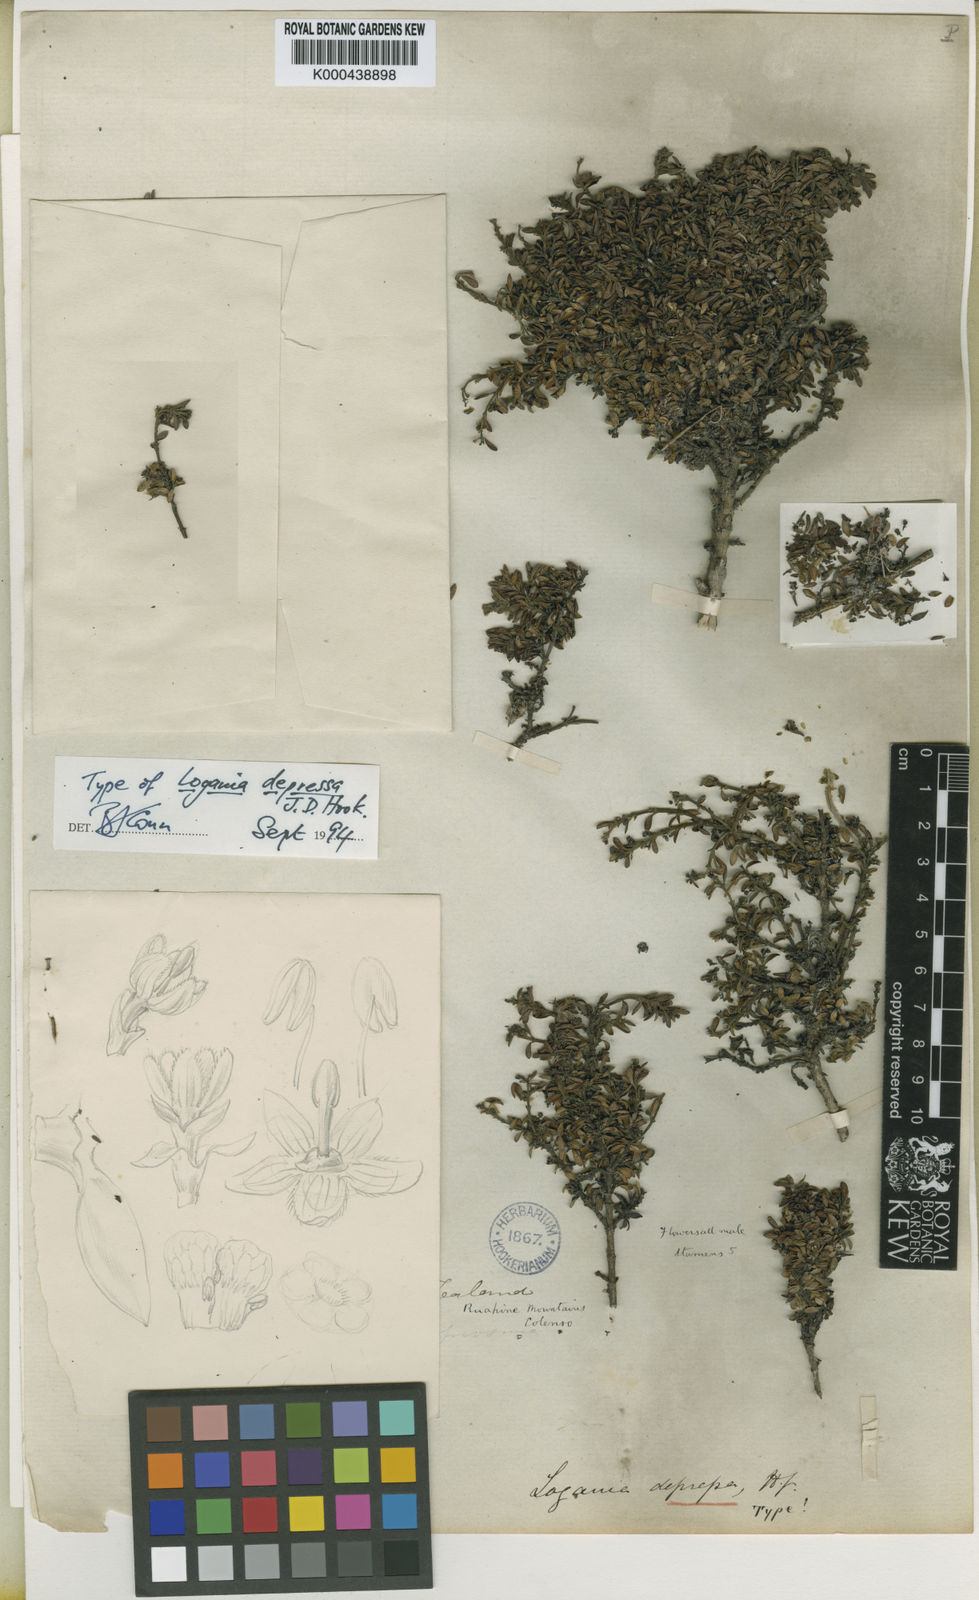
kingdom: Plantae
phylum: Tracheophyta
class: Magnoliopsida
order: Gentianales
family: Loganiaceae
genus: Logania
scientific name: Logania depressa
